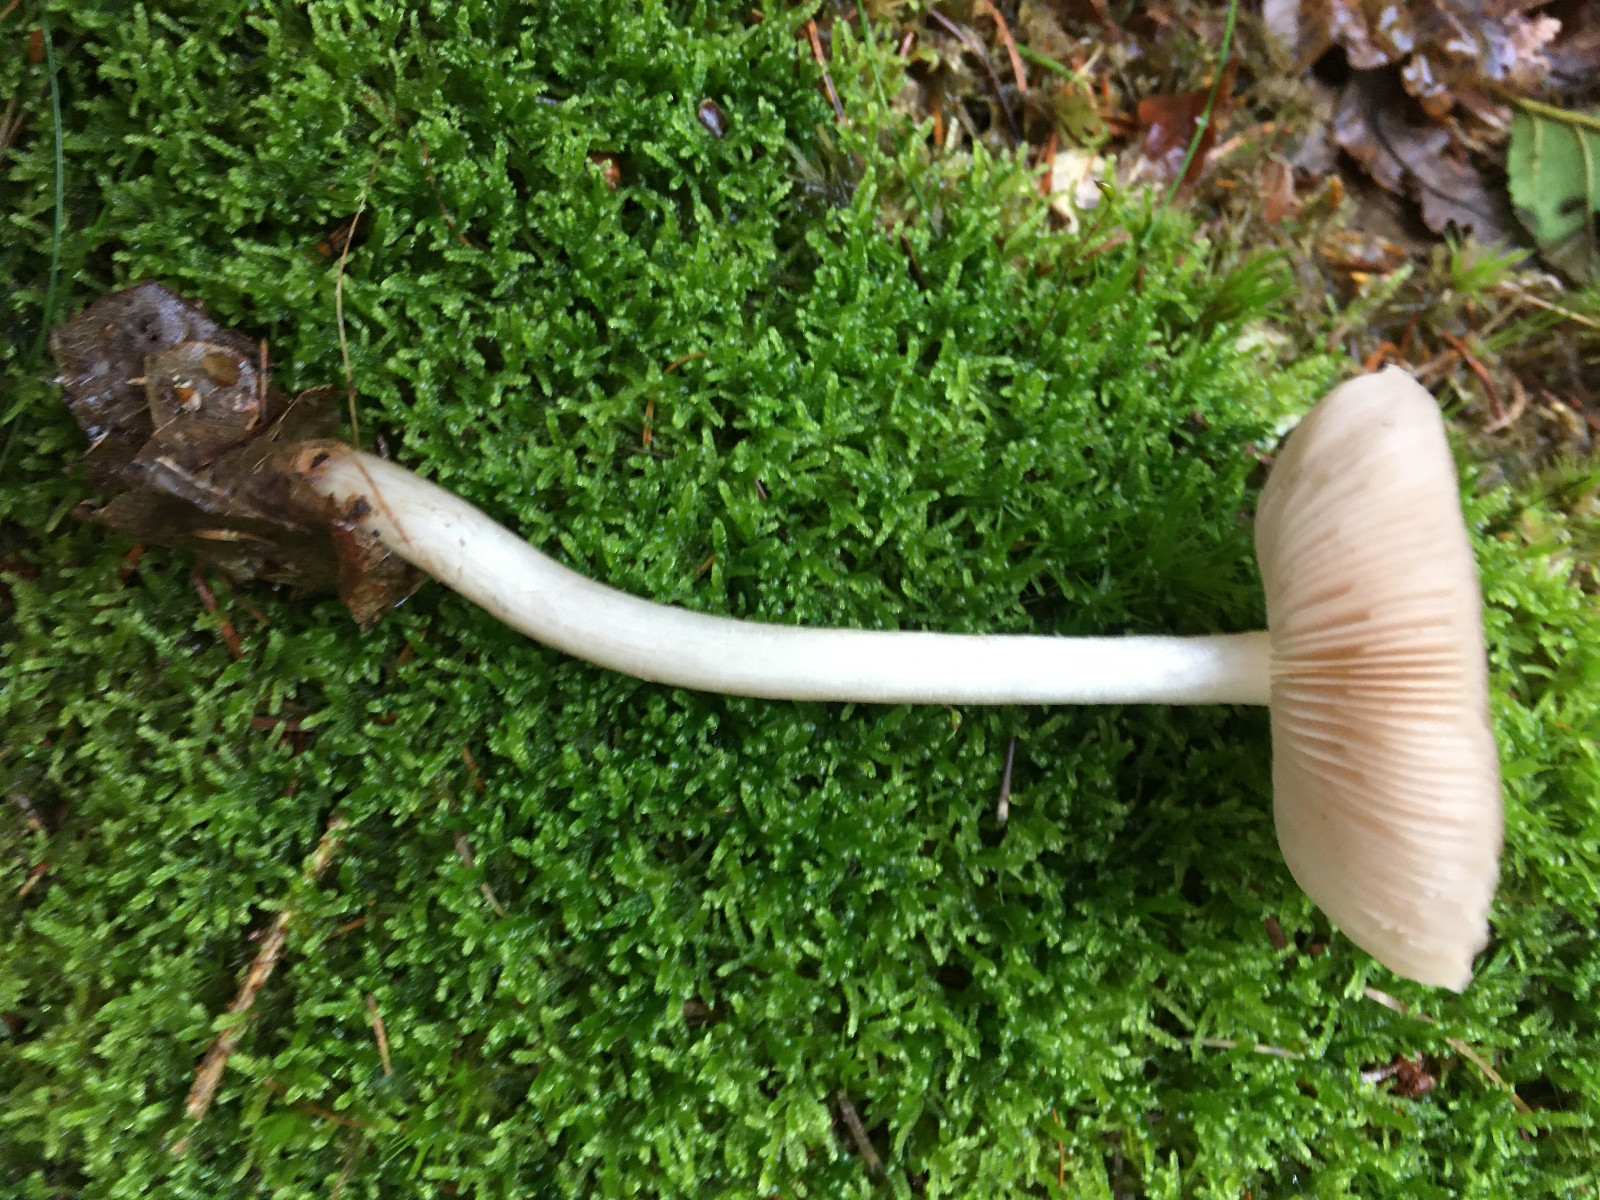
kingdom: Fungi
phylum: Basidiomycota
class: Agaricomycetes
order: Agaricales
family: Mycenaceae
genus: Mycena
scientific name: Mycena galericulata
